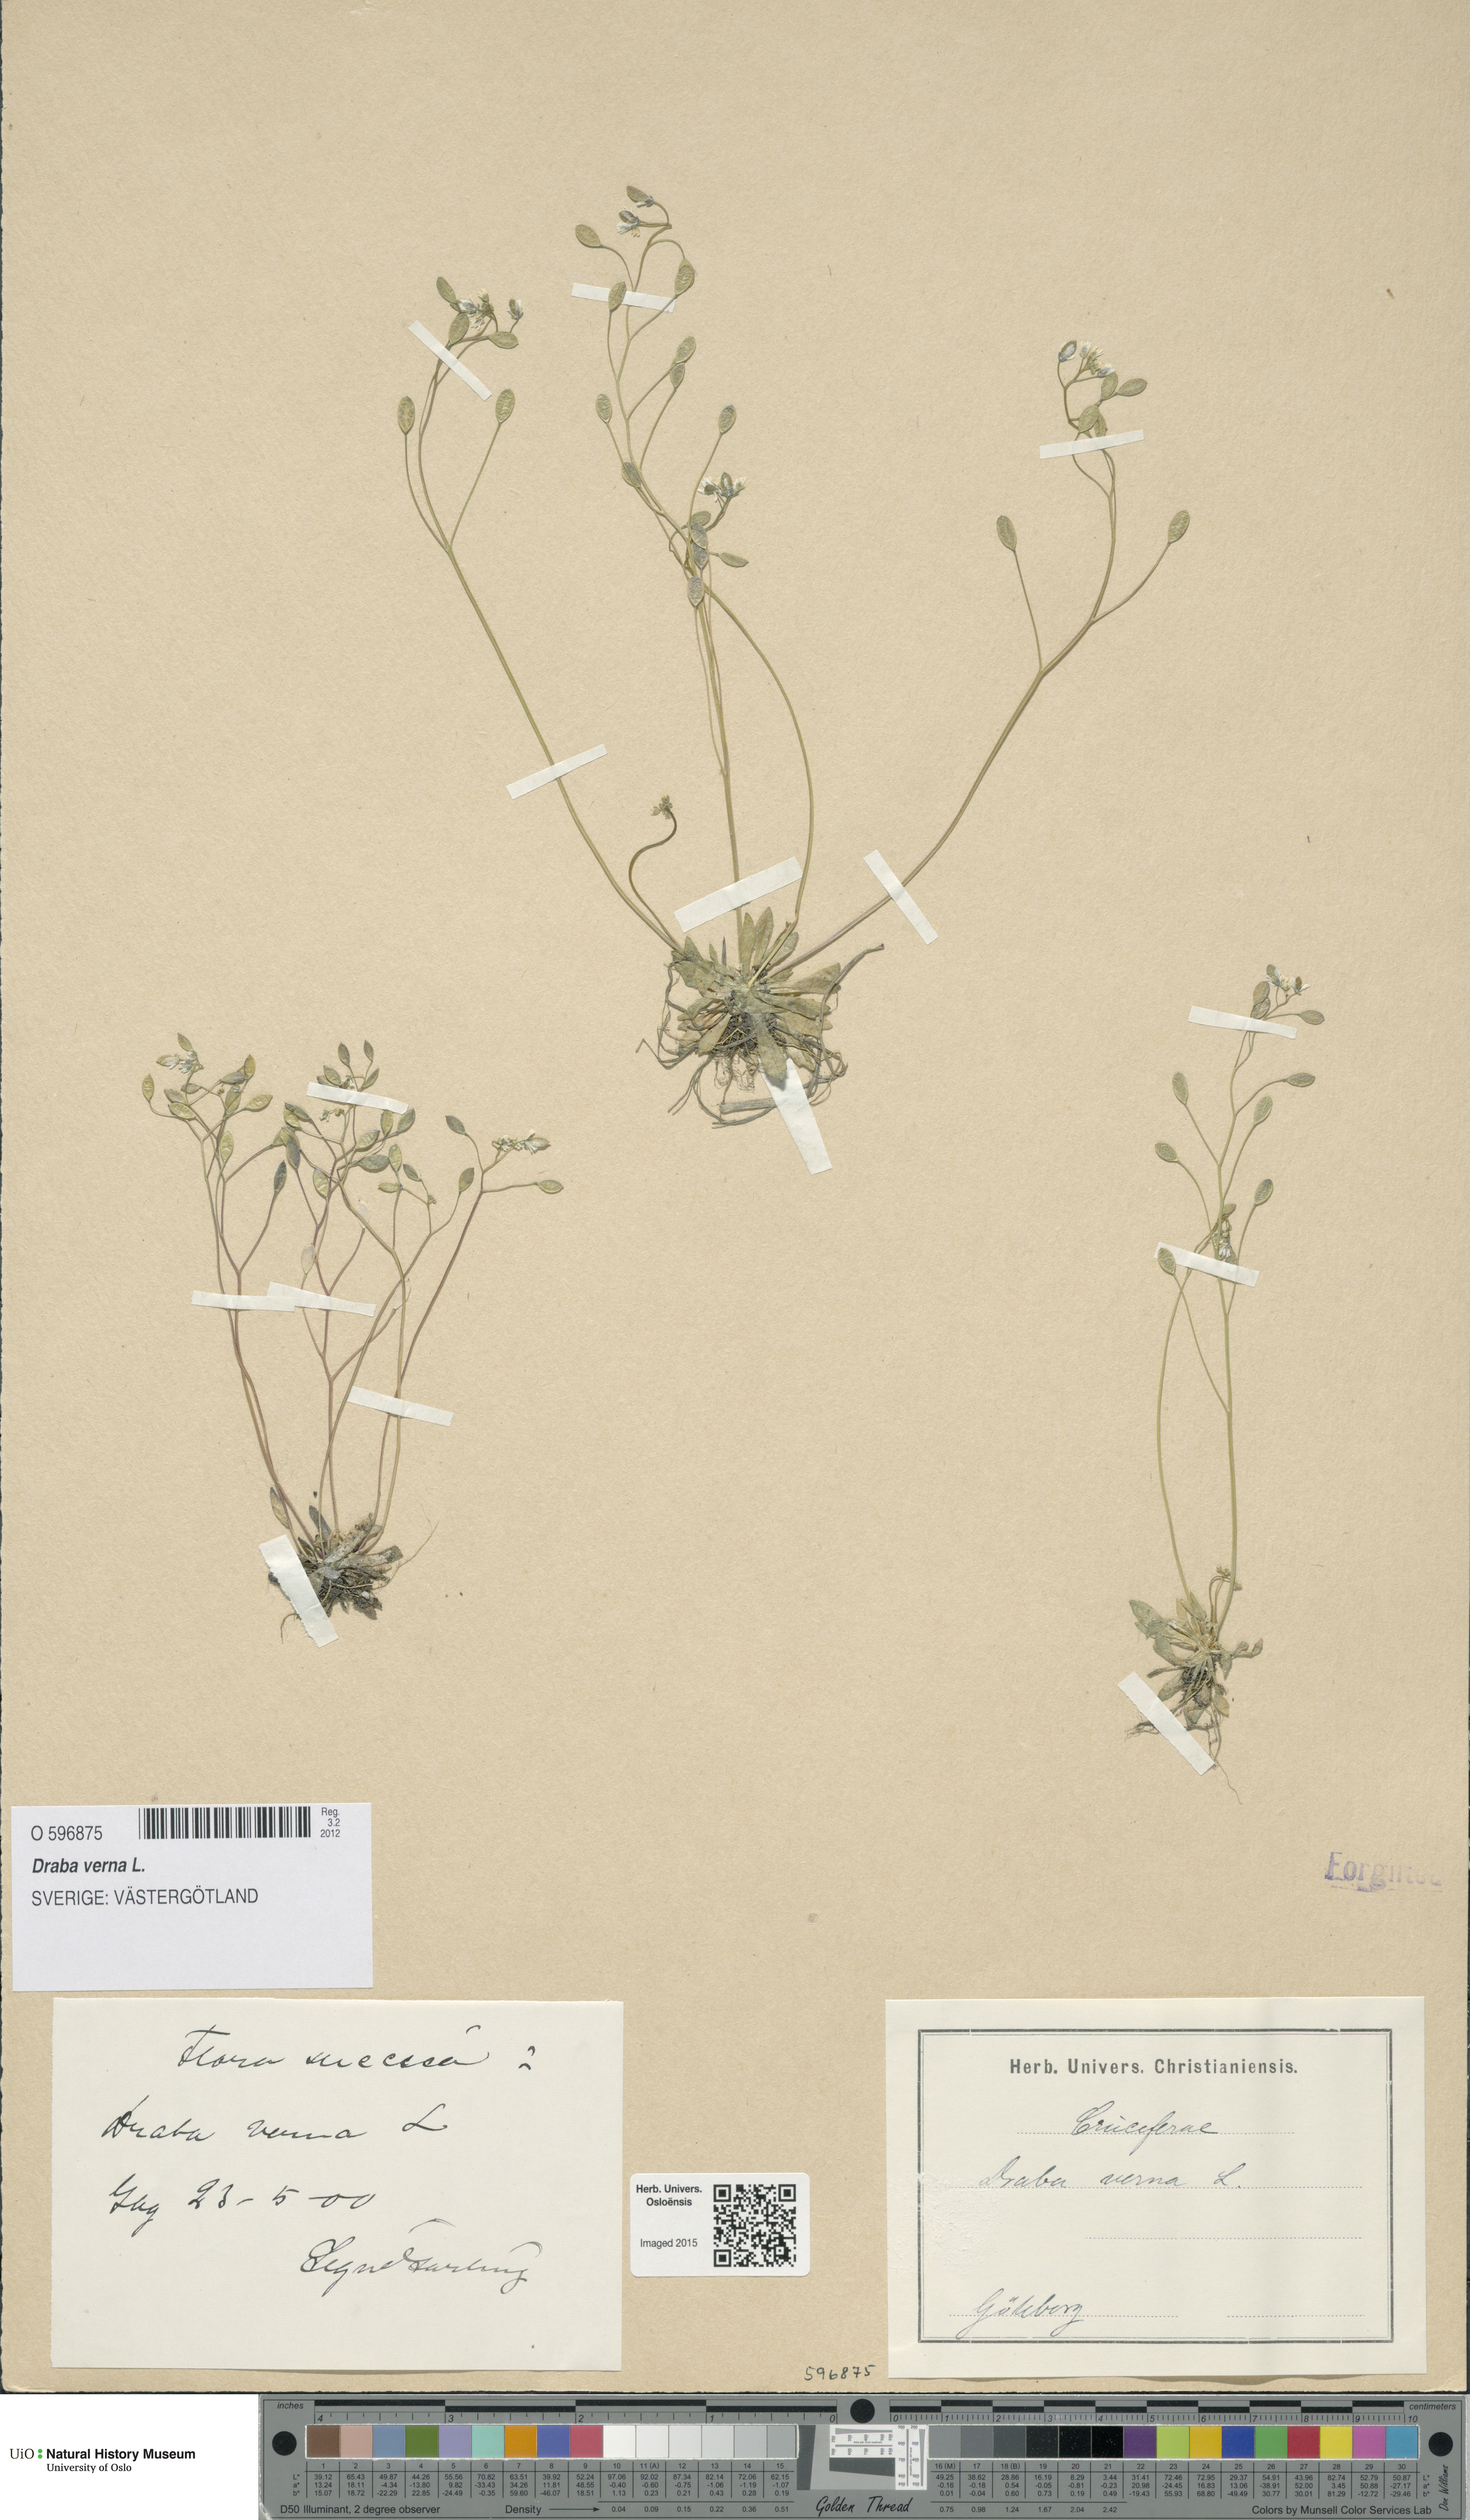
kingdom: Plantae
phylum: Tracheophyta
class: Magnoliopsida
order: Brassicales
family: Brassicaceae
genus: Draba
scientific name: Draba verna
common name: Spring draba
